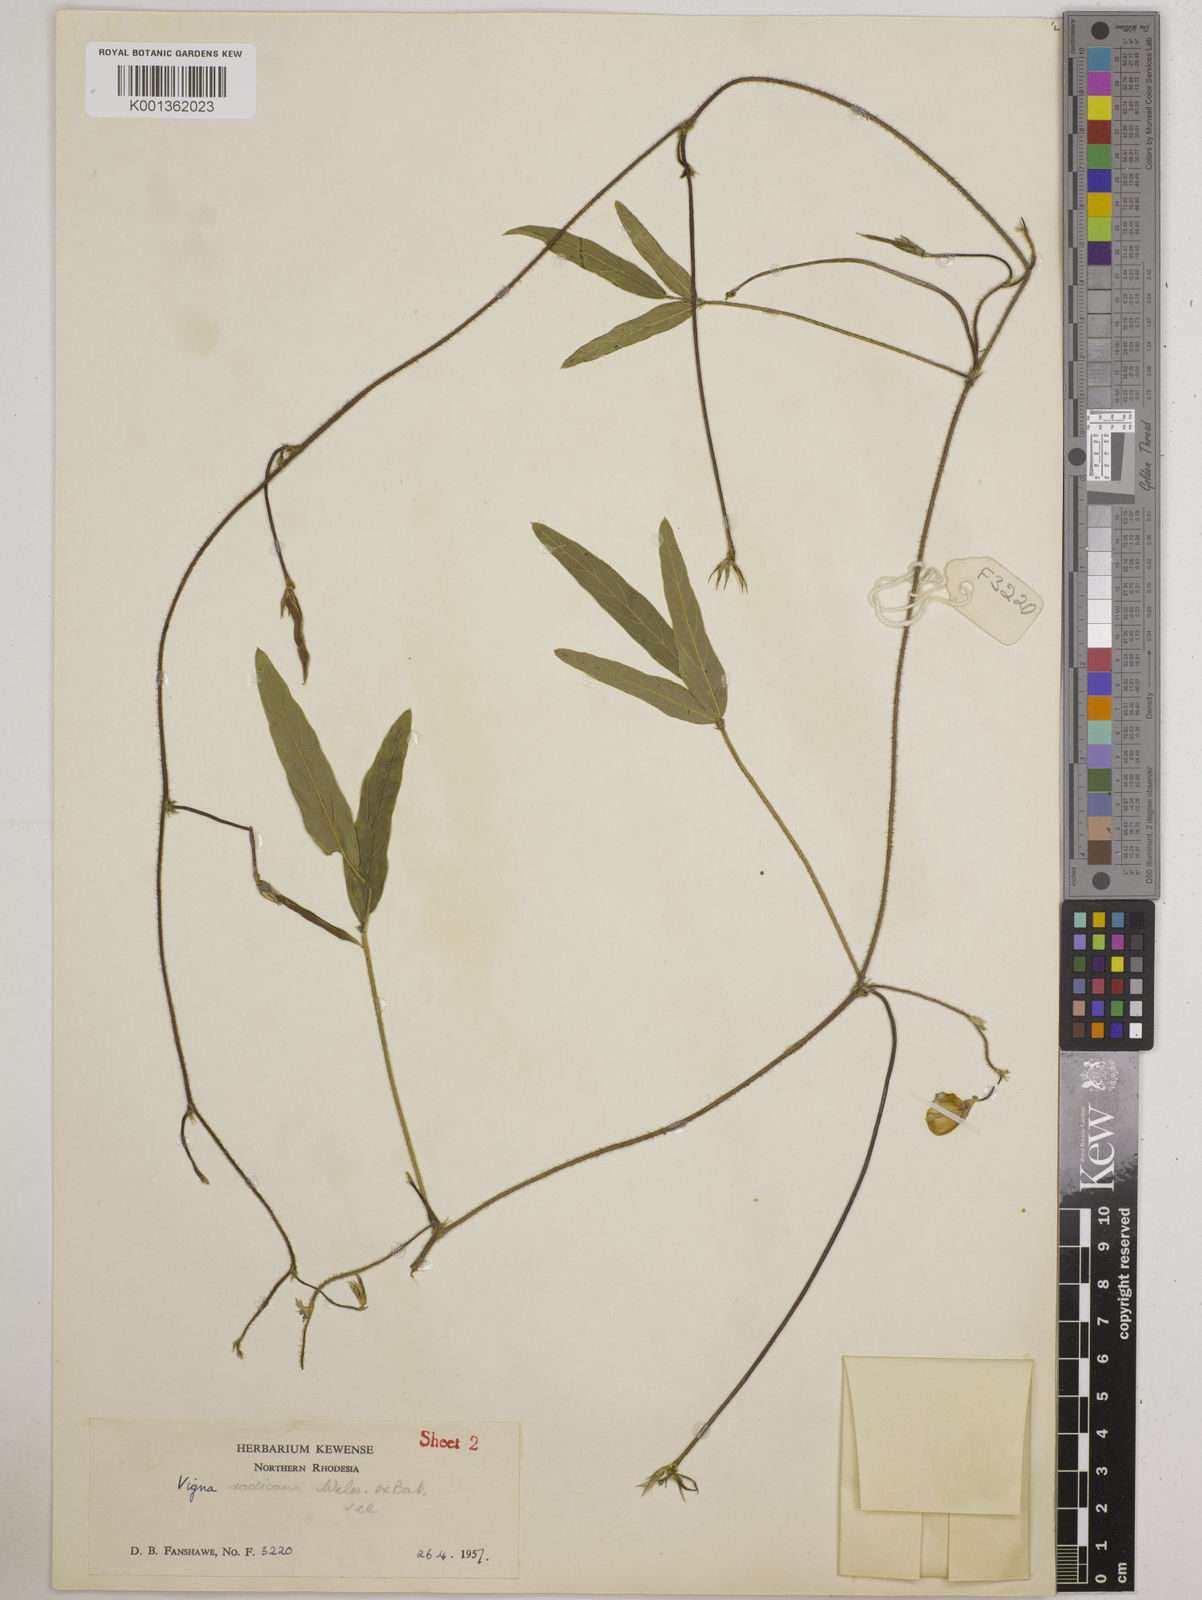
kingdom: Plantae
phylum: Tracheophyta
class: Magnoliopsida
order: Fabales
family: Fabaceae
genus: Vigna
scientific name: Vigna radicans
